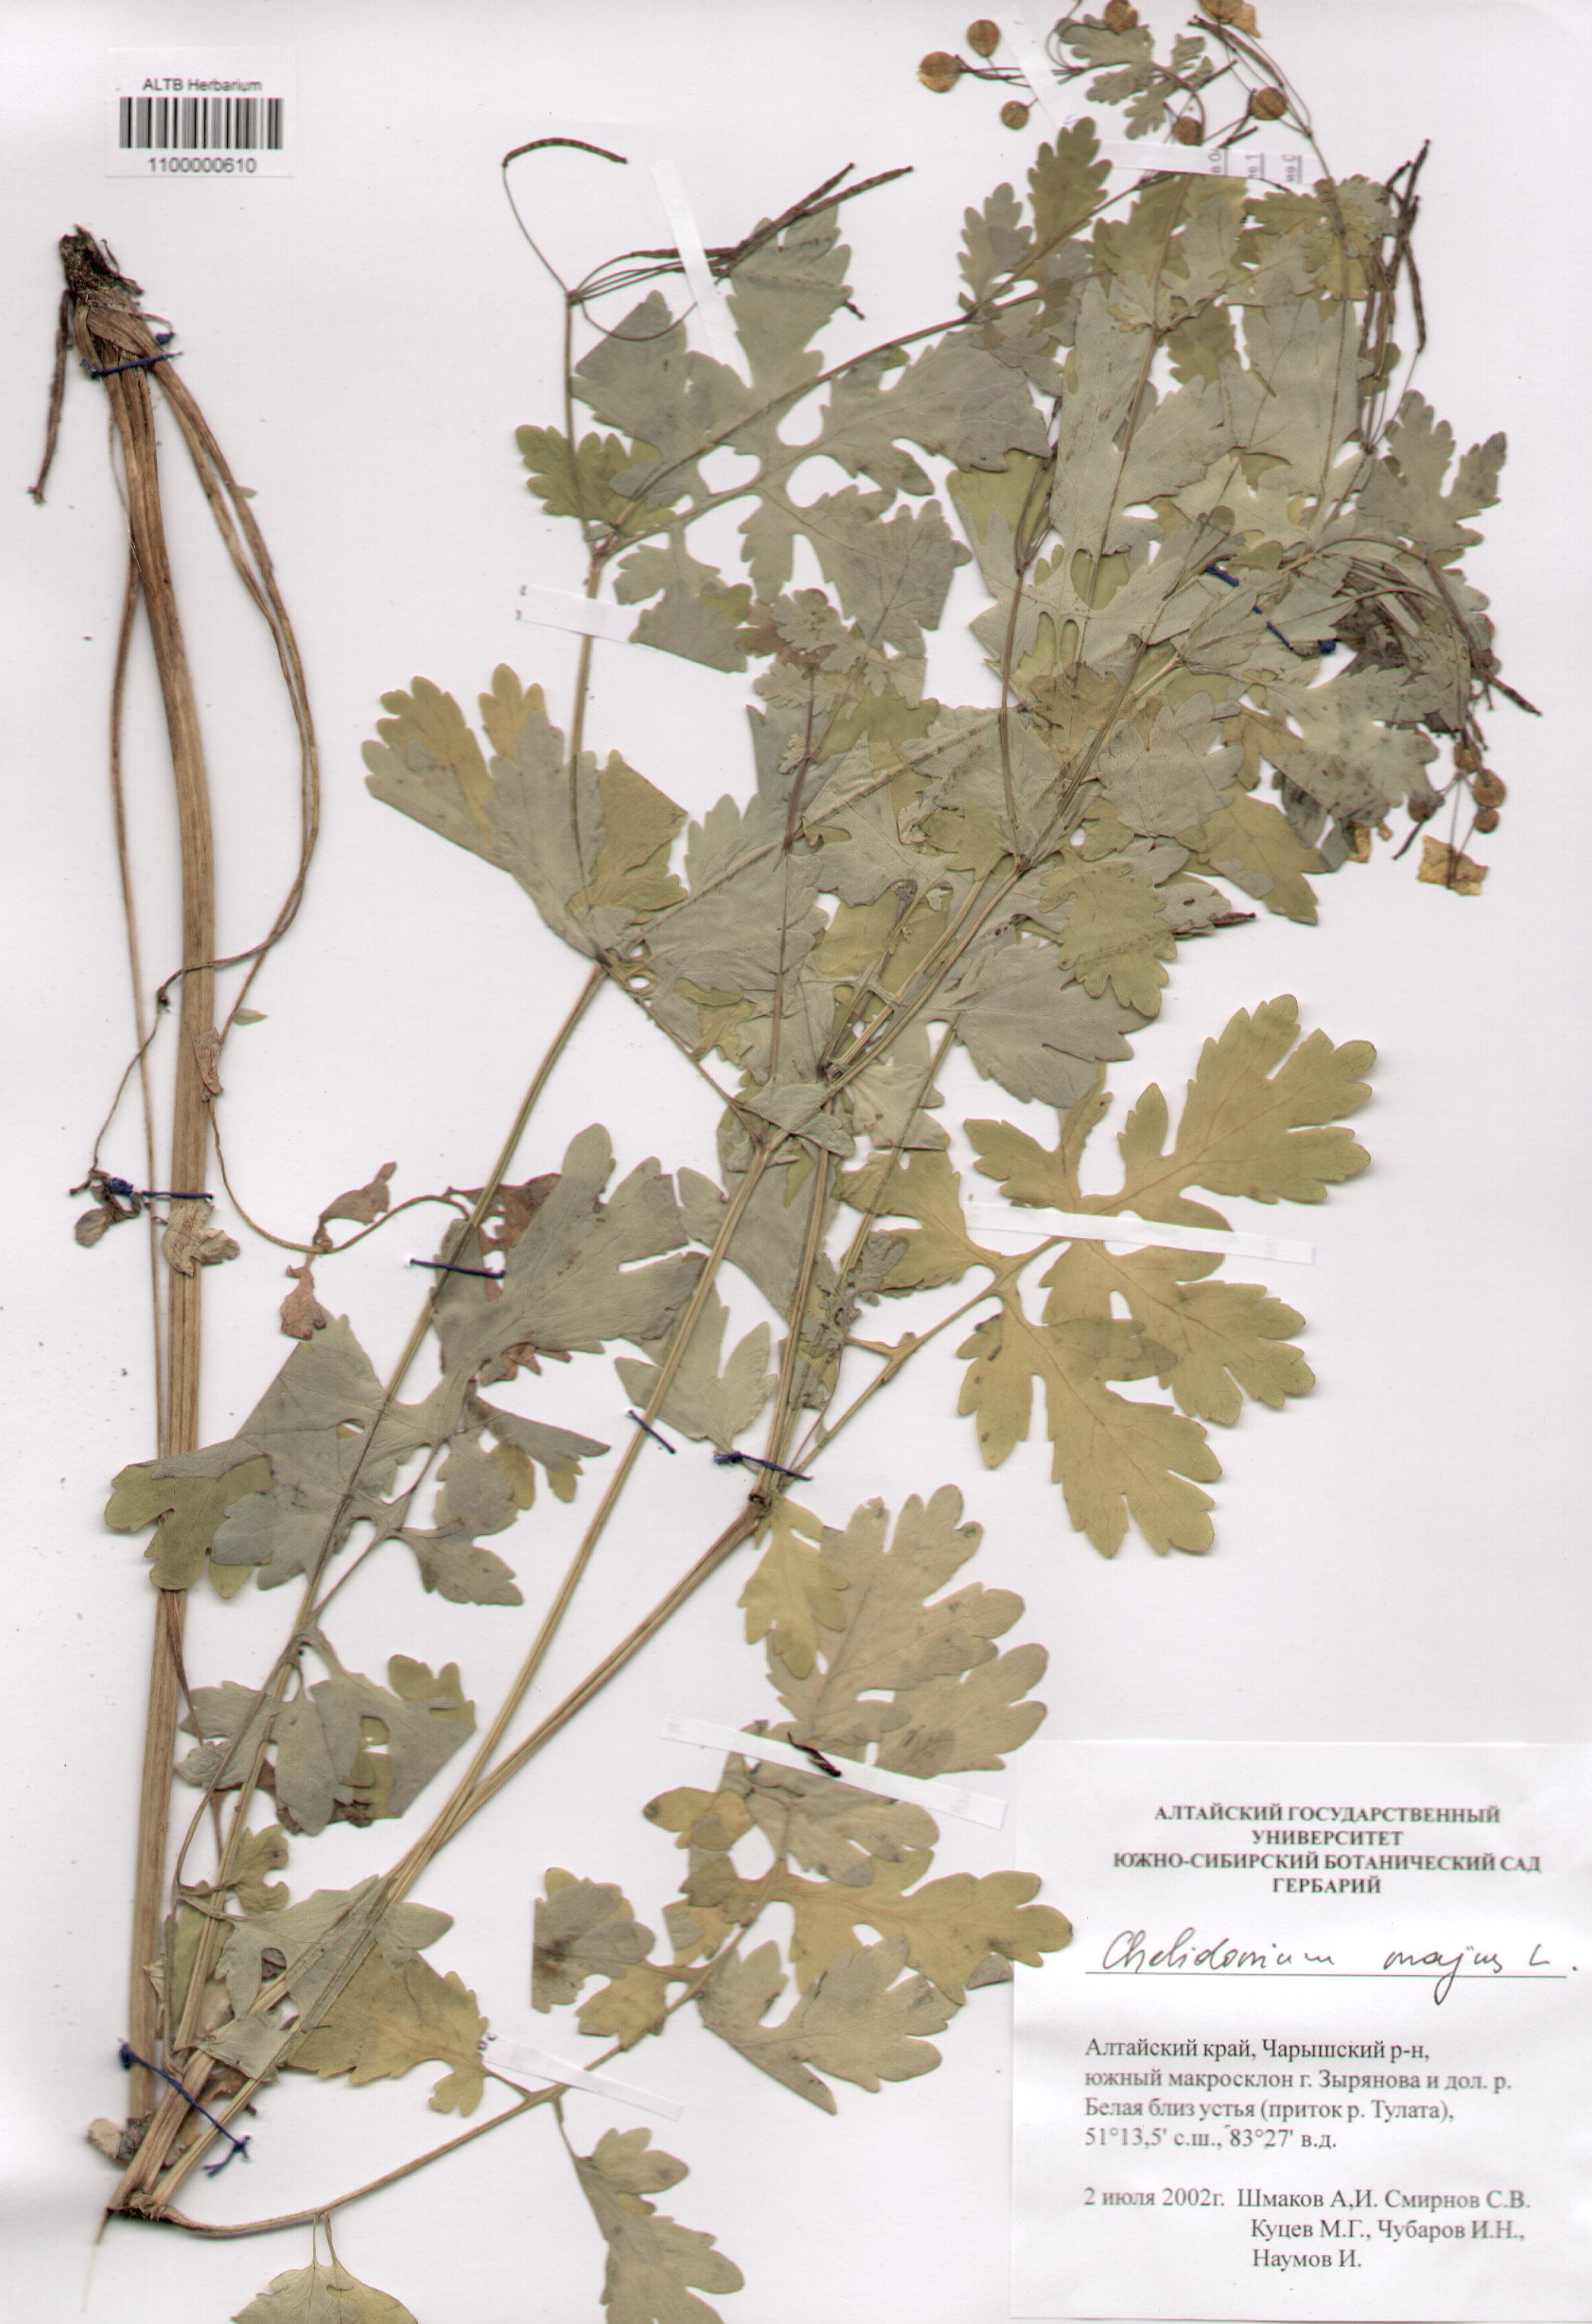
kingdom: Plantae
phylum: Tracheophyta
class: Magnoliopsida
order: Ranunculales
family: Papaveraceae
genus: Chelidonium
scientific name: Chelidonium majus
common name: Greater celandine
